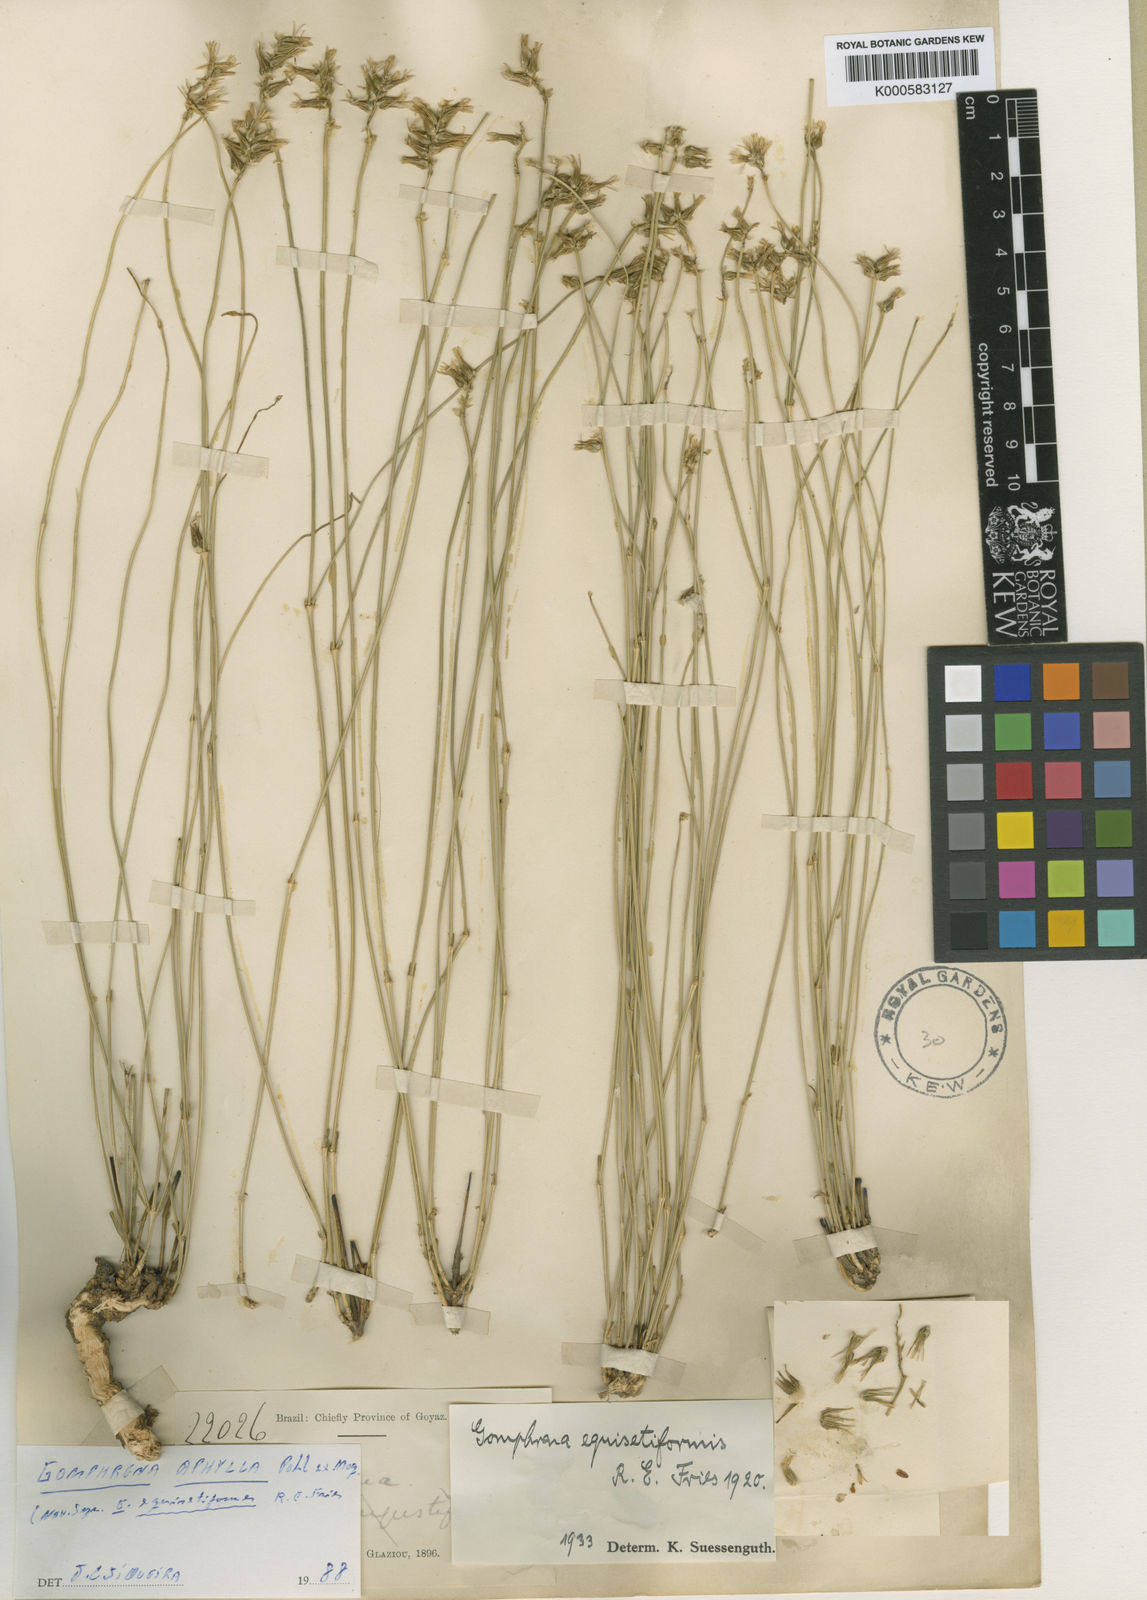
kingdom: Plantae
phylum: Tracheophyta
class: Magnoliopsida
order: Caryophyllales
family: Amaranthaceae
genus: Gomphrena
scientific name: Gomphrena aphylla
